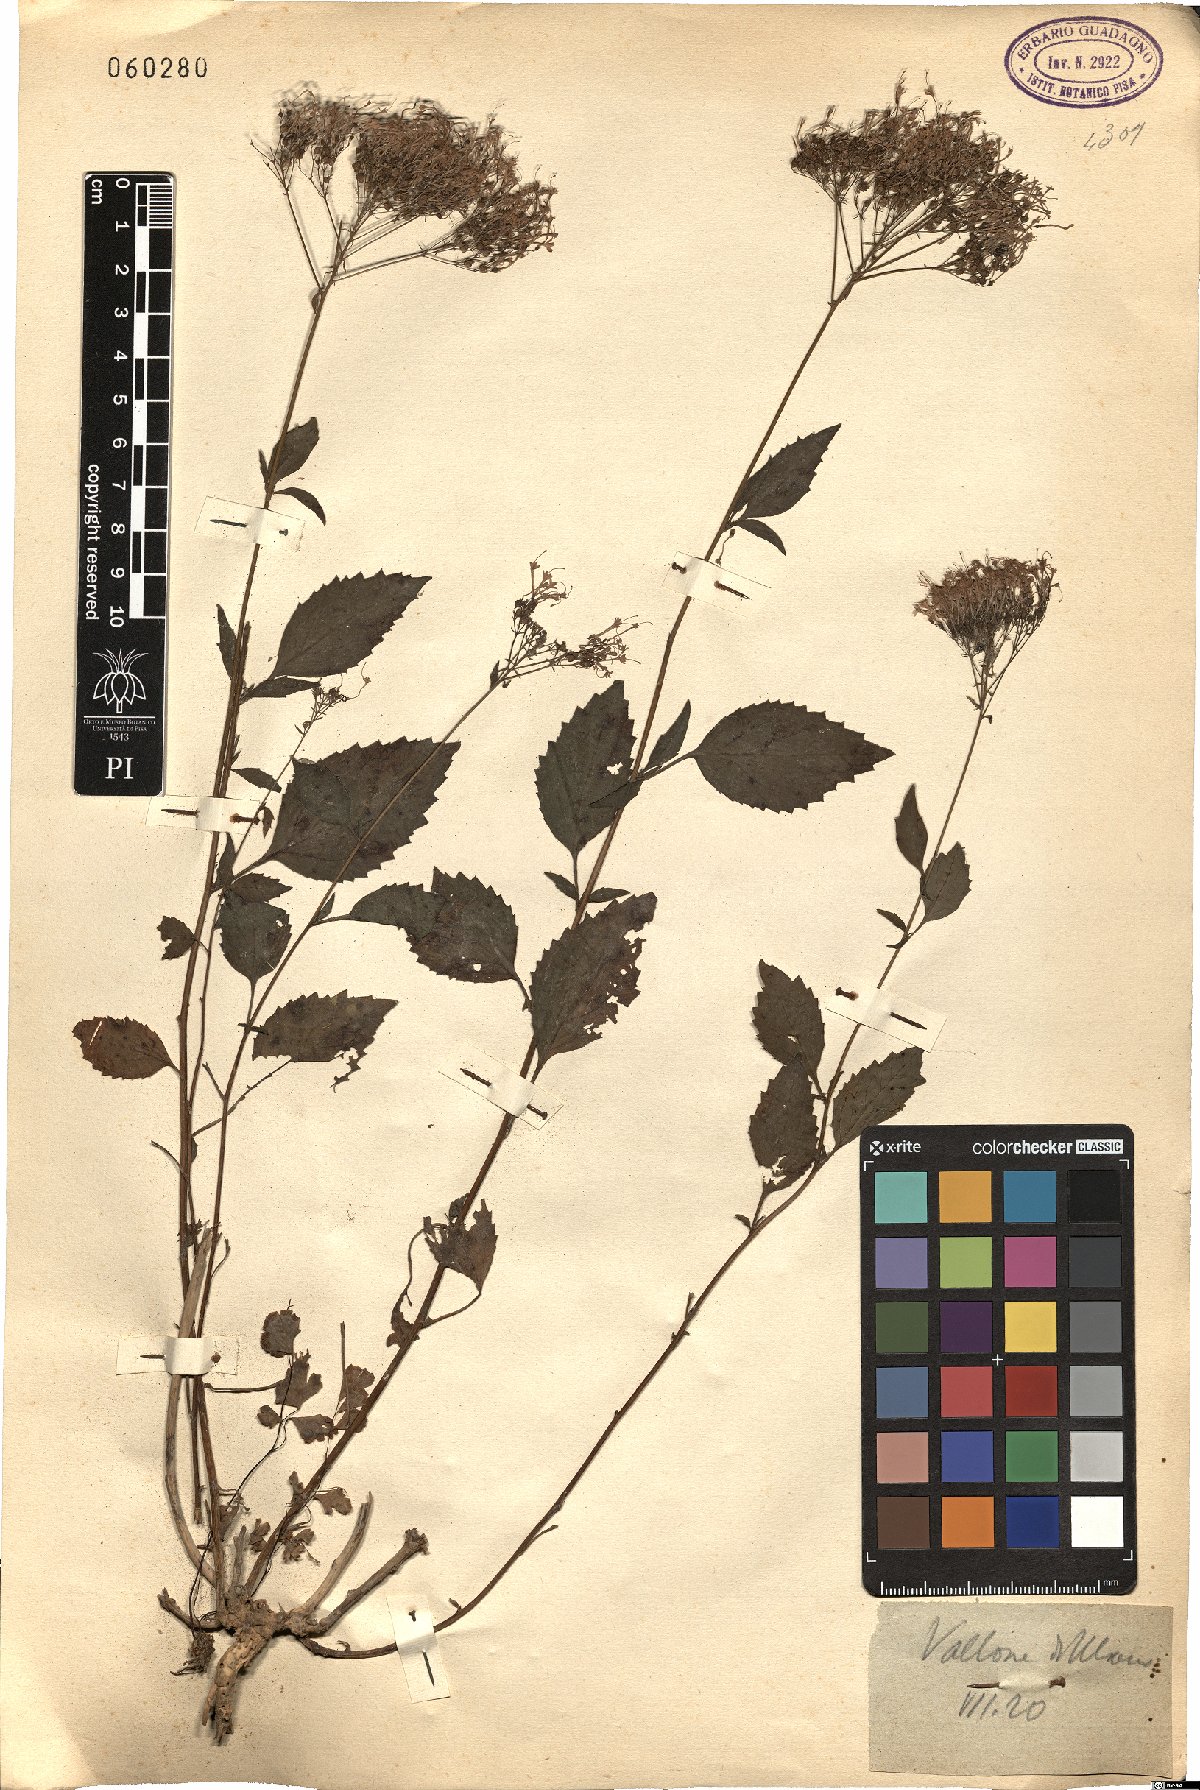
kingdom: Plantae
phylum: Tracheophyta
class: Magnoliopsida
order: Asterales
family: Campanulaceae
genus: Trachelium
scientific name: Trachelium caeruleum
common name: Throatwort
